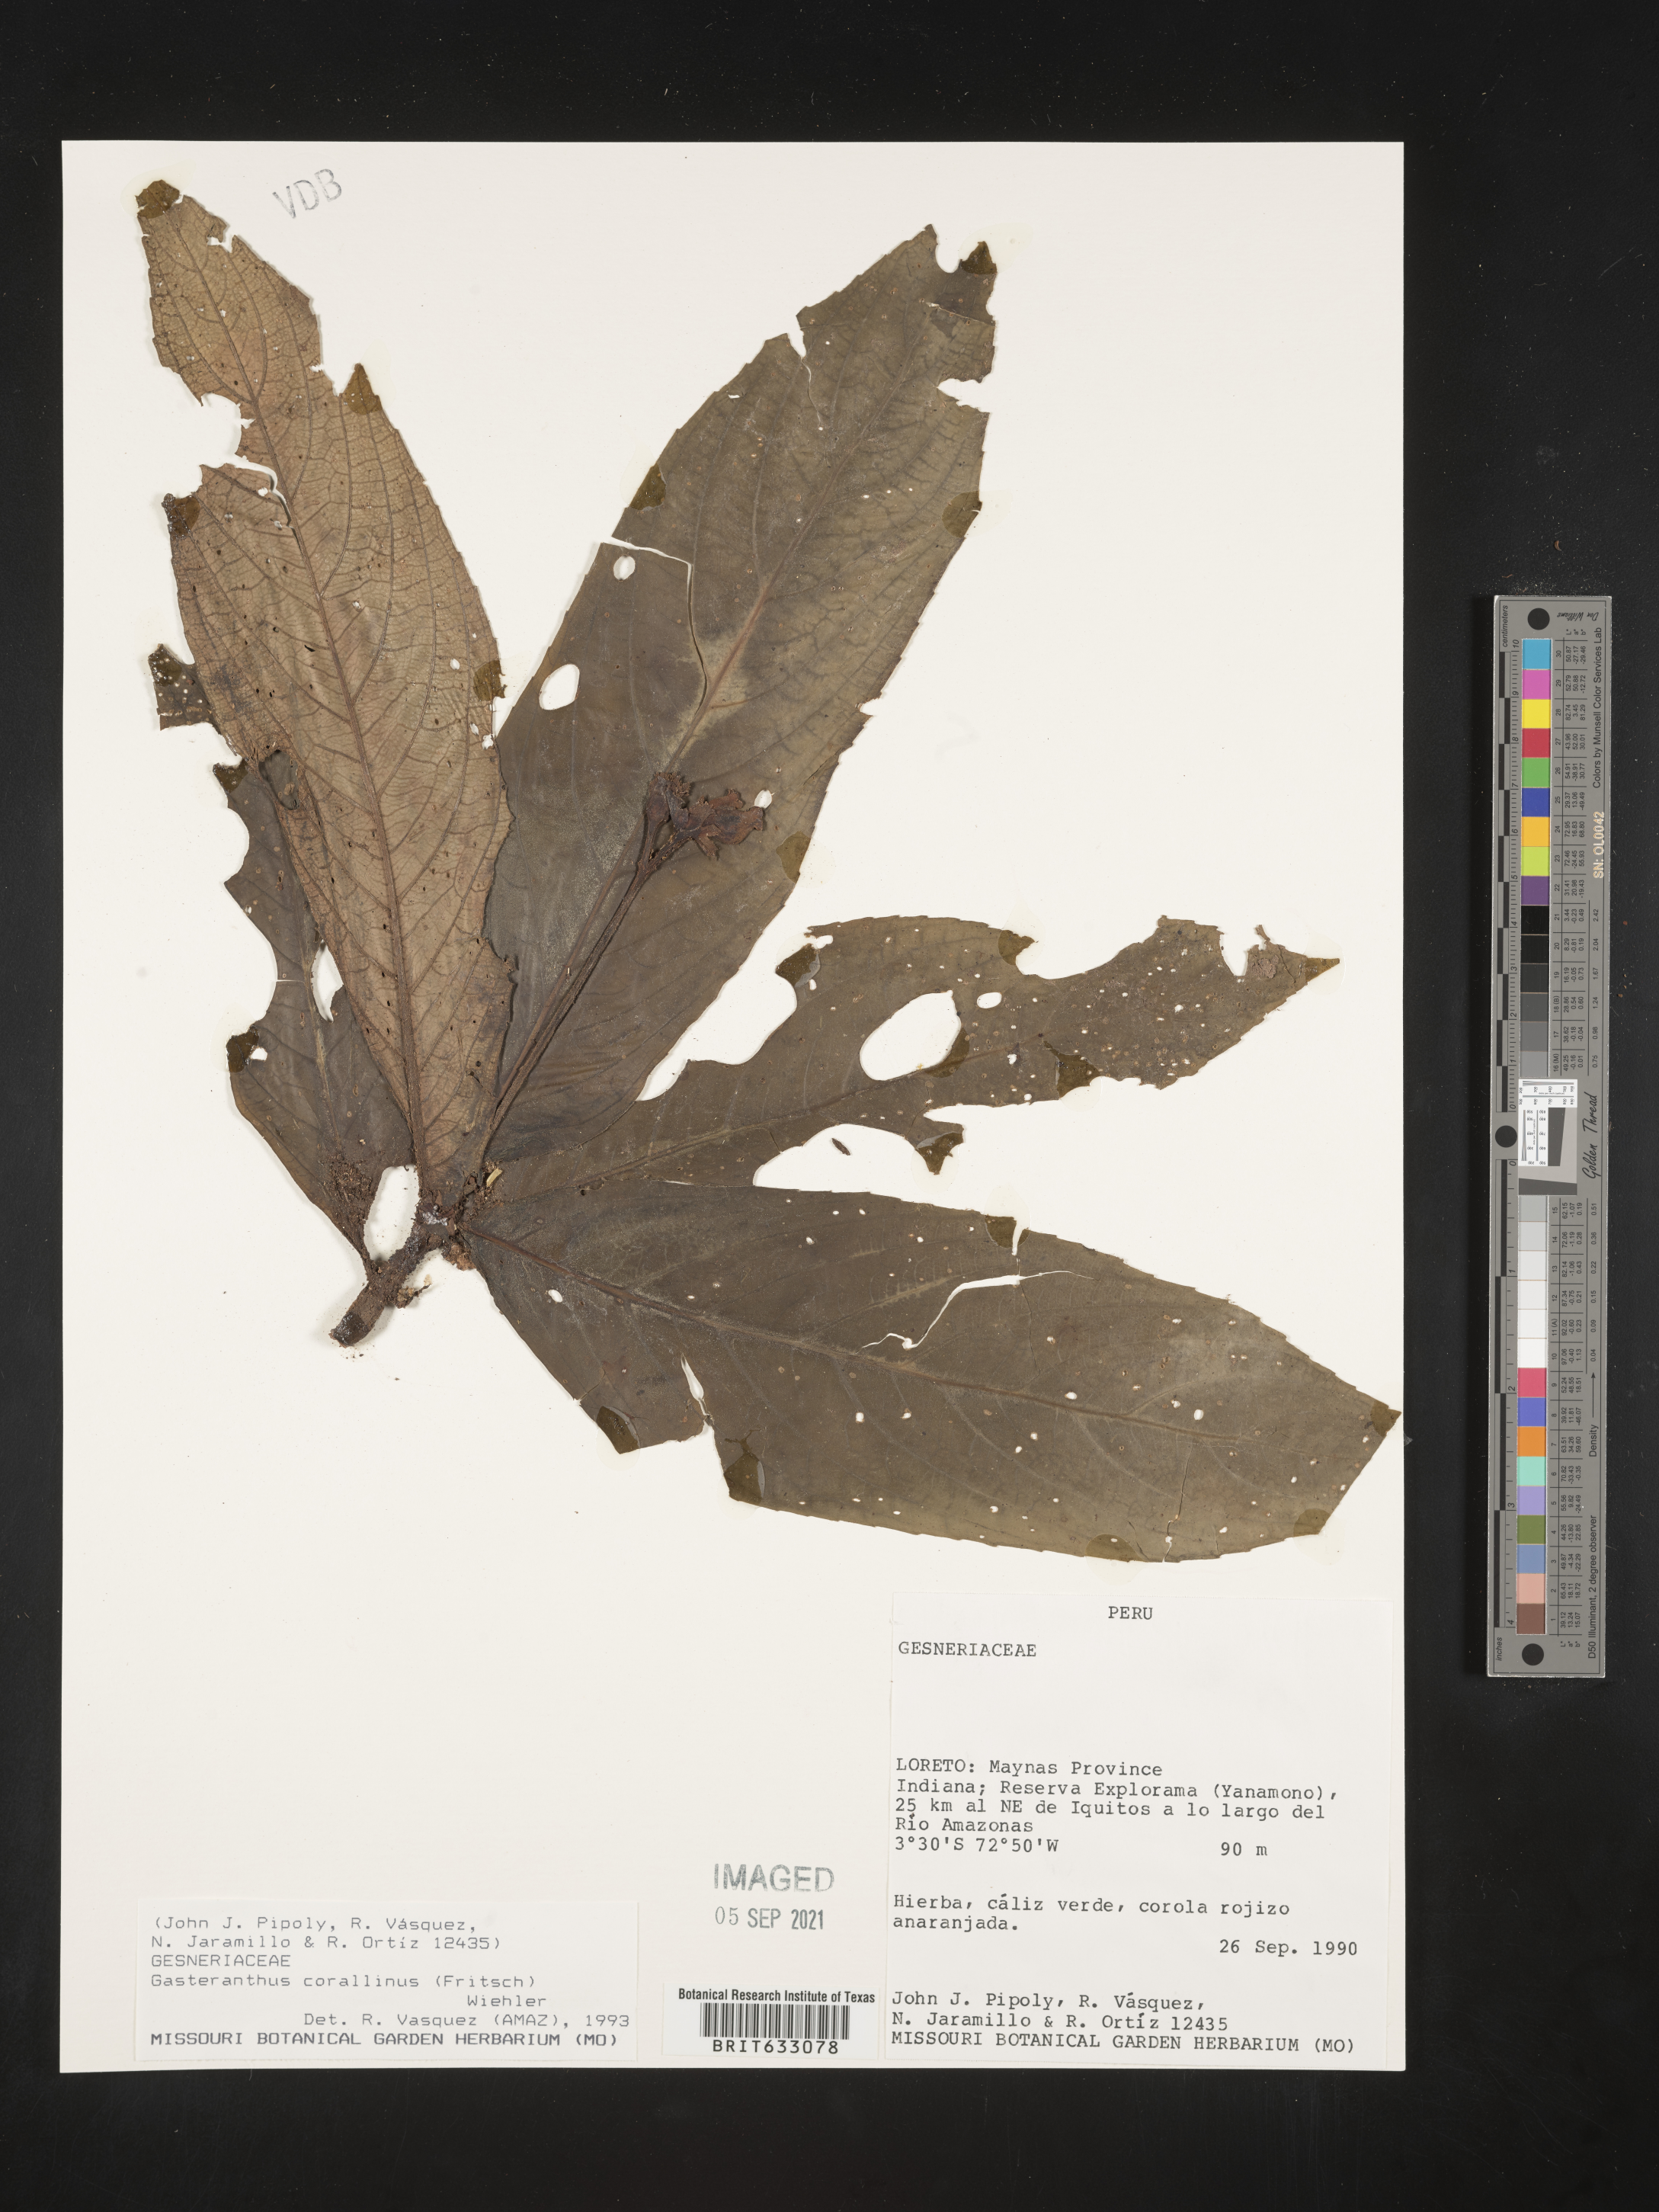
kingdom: Plantae
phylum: Tracheophyta
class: Magnoliopsida
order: Lamiales
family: Gesneriaceae
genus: Gasteranthus
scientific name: Gasteranthus corallinus
